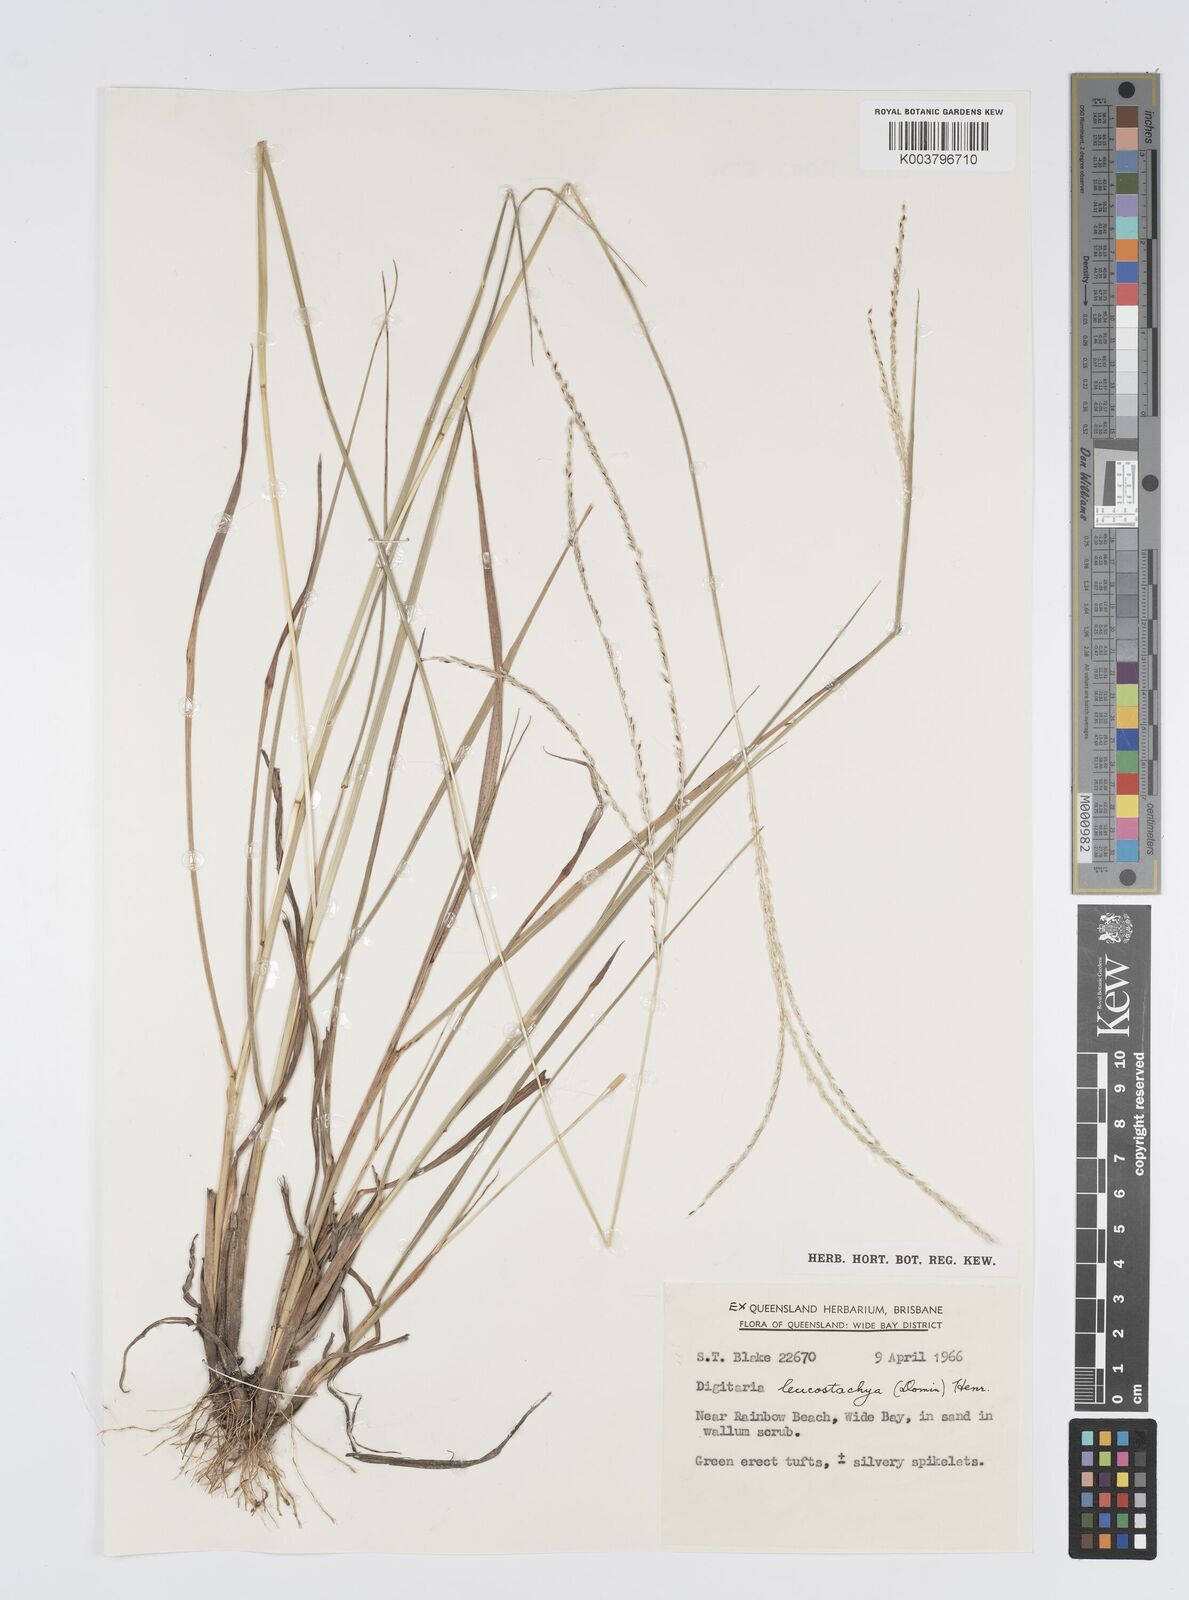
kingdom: Plantae
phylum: Tracheophyta
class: Liliopsida
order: Poales
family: Poaceae
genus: Digitaria
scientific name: Digitaria leucostachya
